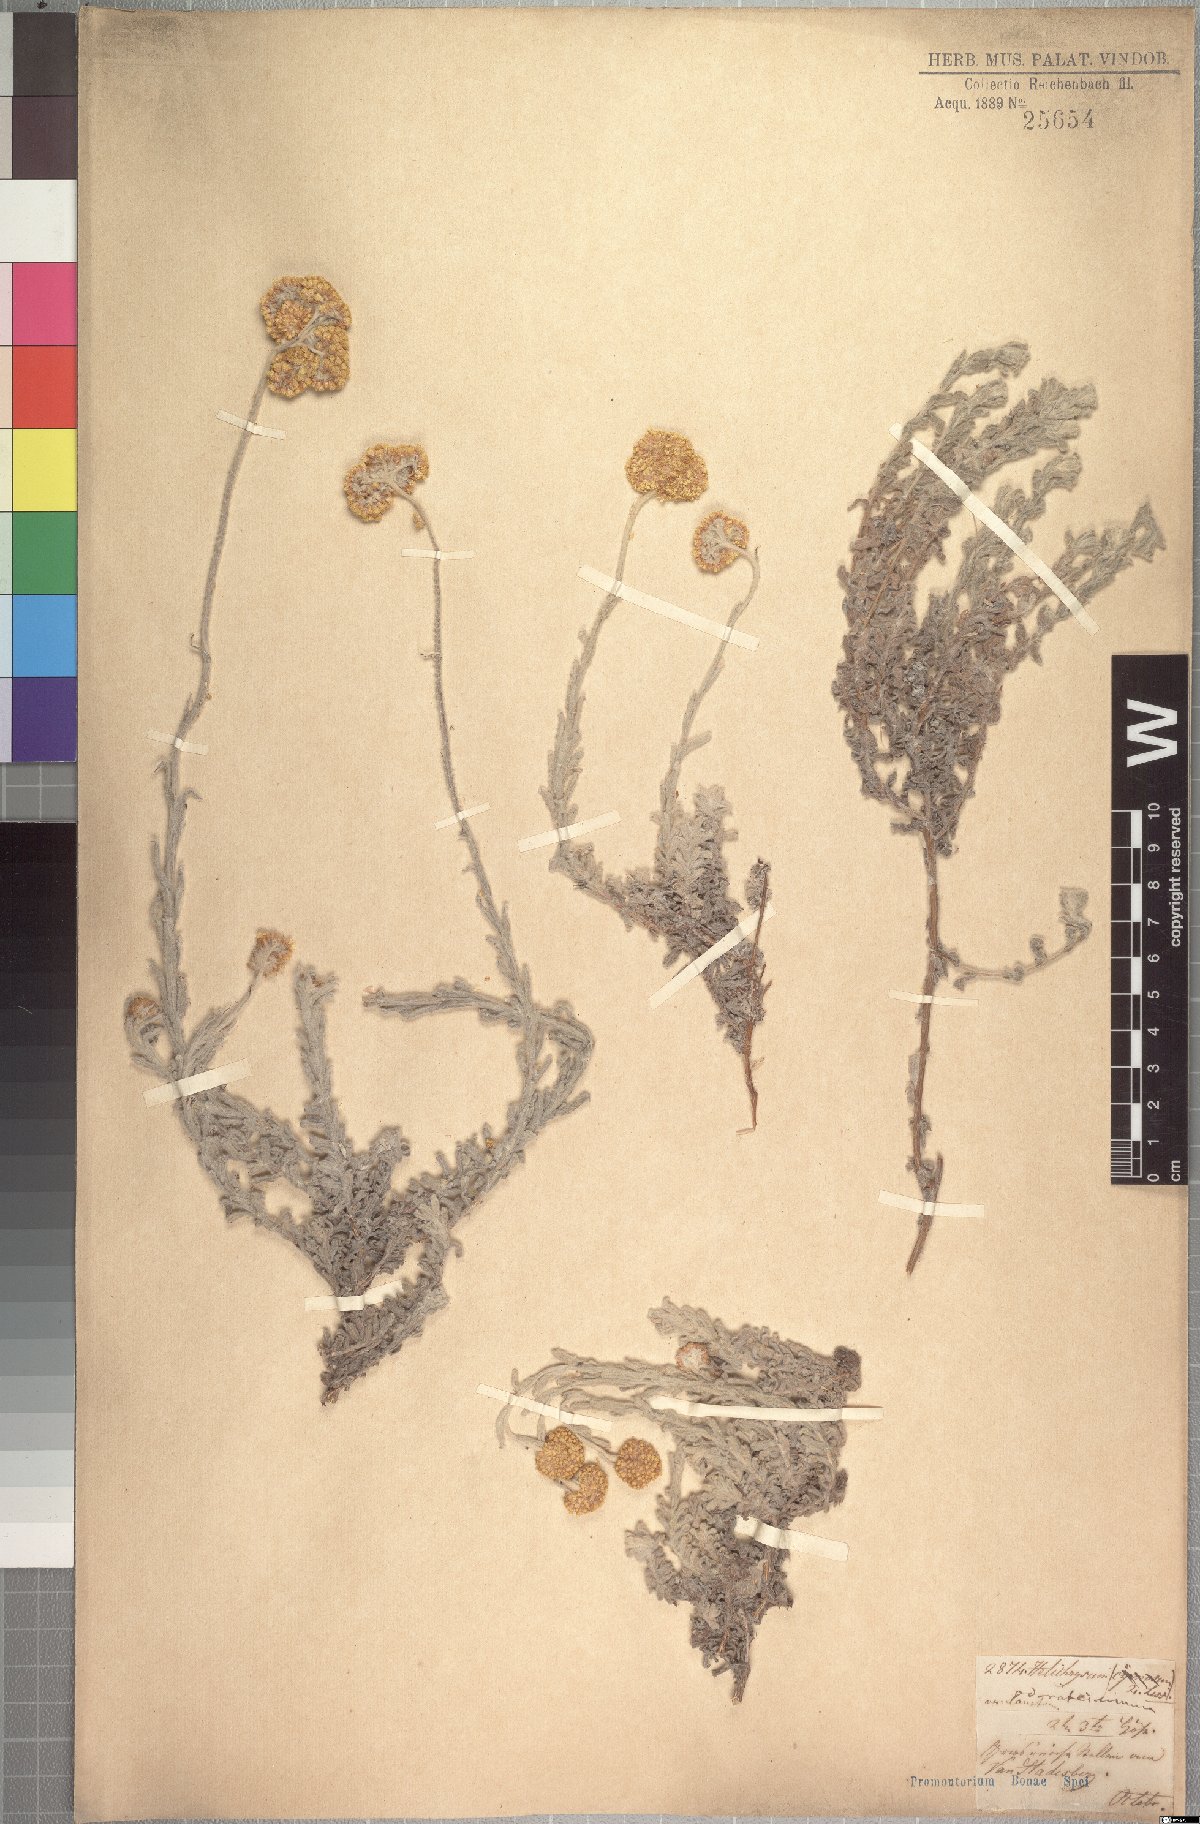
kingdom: Plantae
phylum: Tracheophyta
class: Magnoliopsida
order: Asterales
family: Asteraceae
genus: Helichrysum
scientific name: Helichrysum odoratissimum
